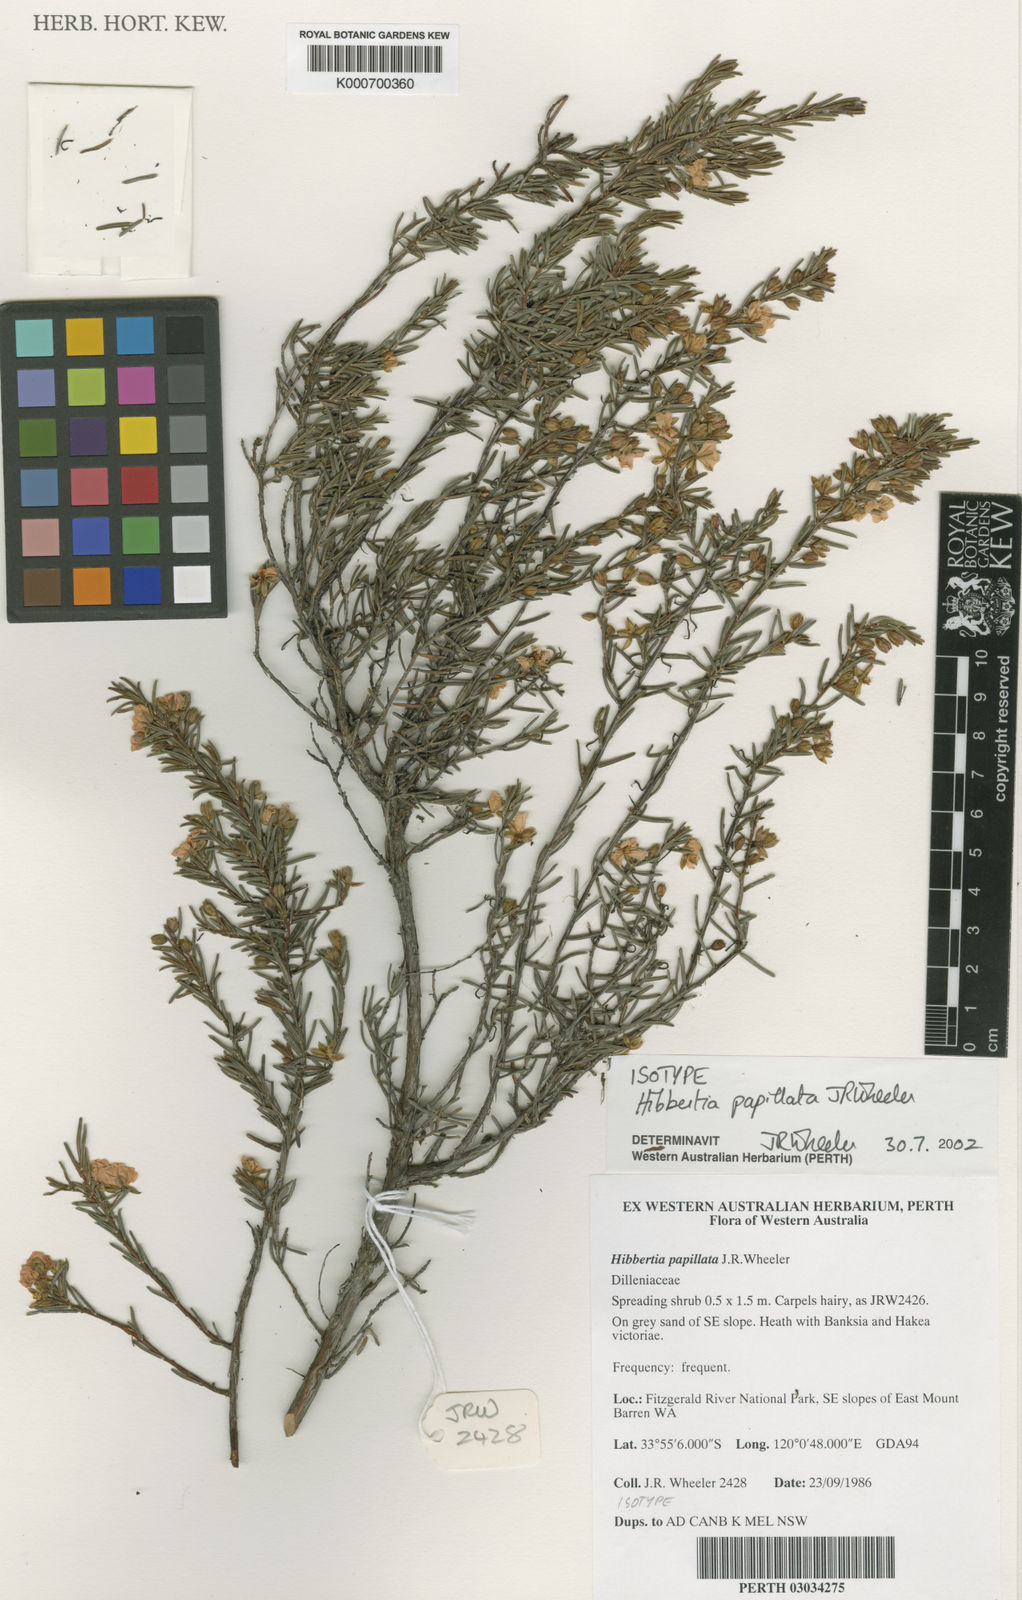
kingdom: Plantae
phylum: Tracheophyta
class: Magnoliopsida
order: Dilleniales
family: Dilleniaceae
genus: Hibbertia
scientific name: Hibbertia papillata
